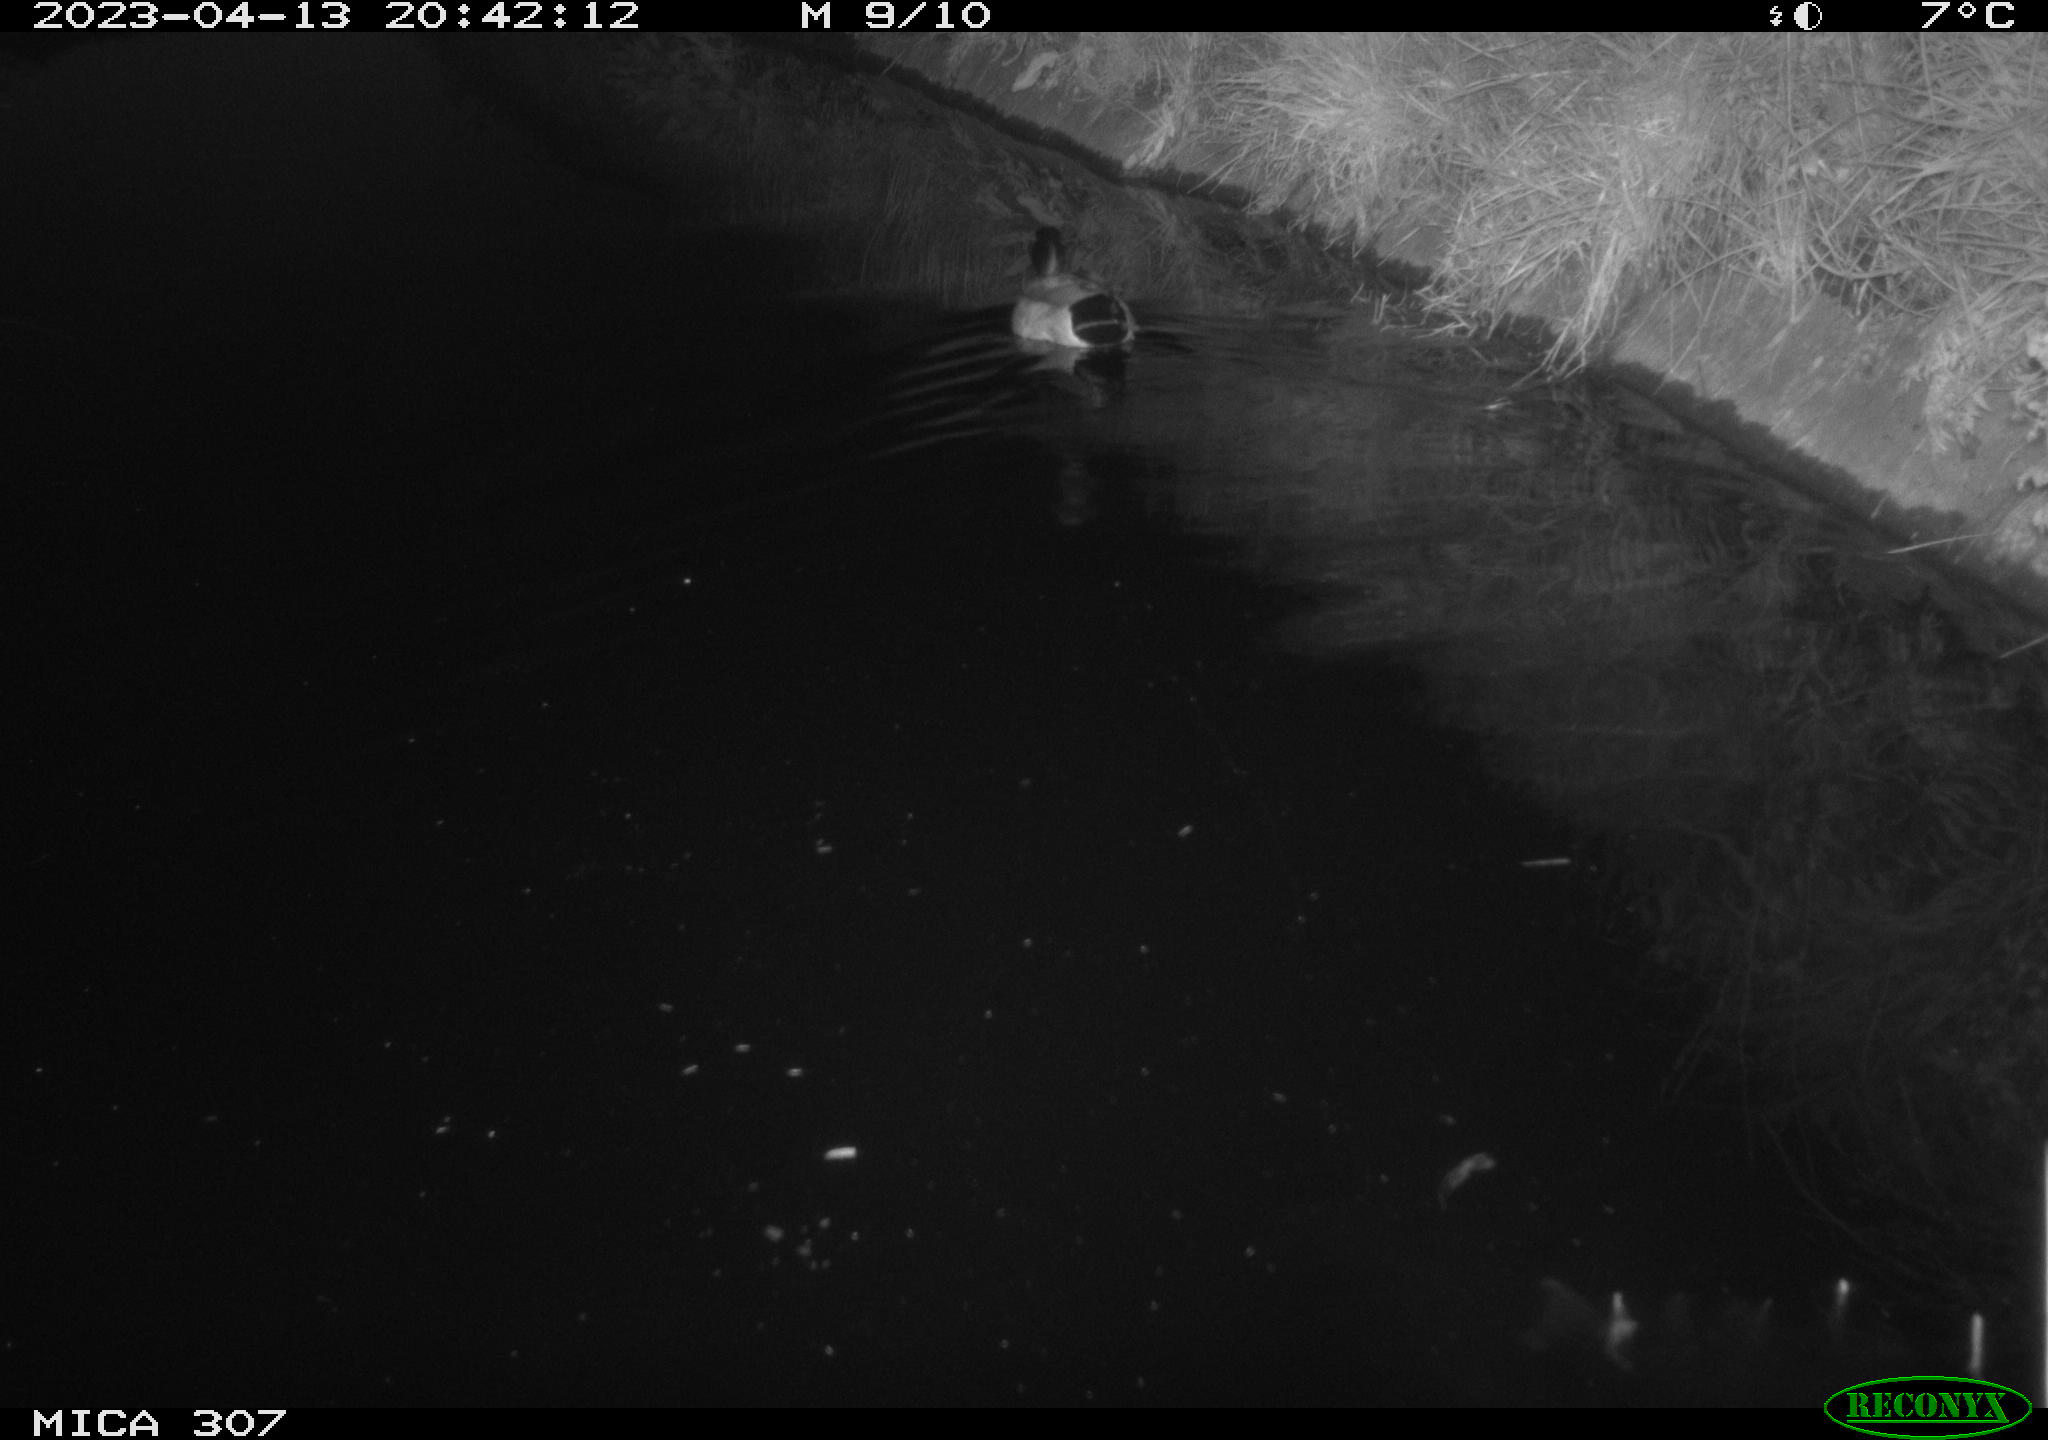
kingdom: Animalia
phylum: Chordata
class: Aves
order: Anseriformes
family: Anatidae
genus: Anas
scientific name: Anas
